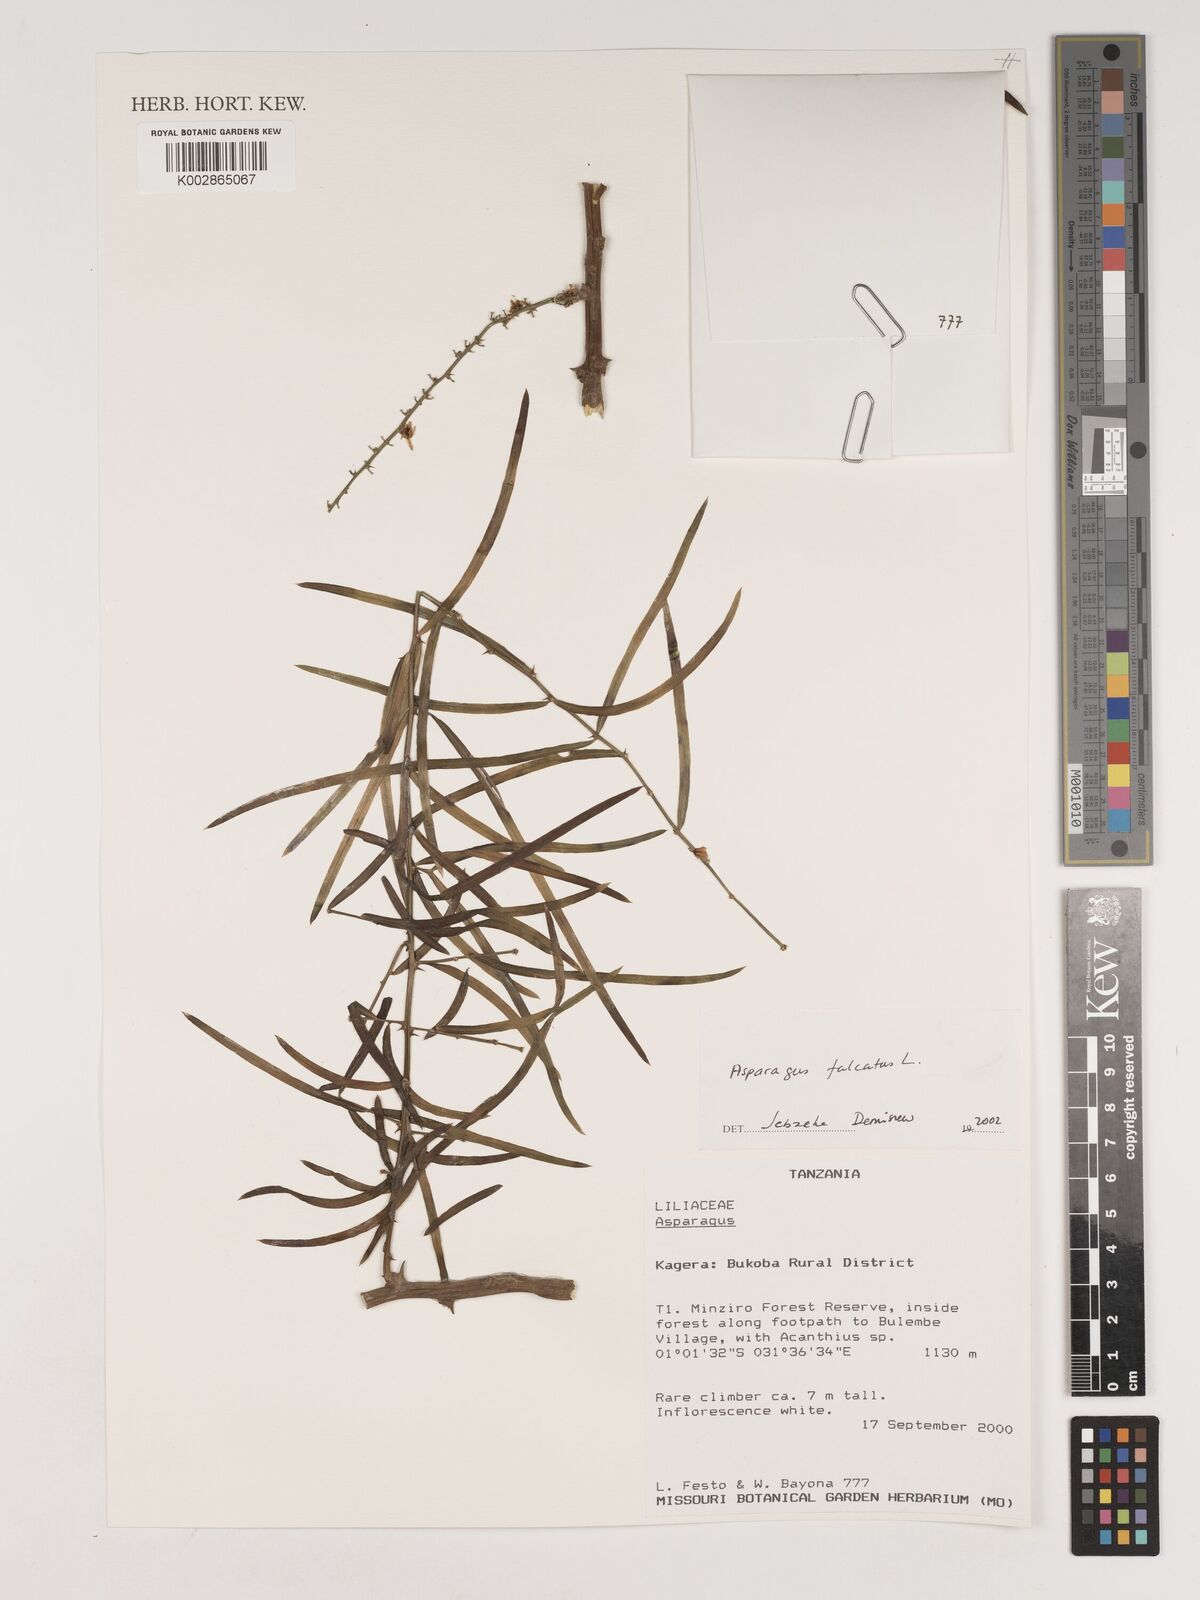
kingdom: Plantae
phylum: Tracheophyta
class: Liliopsida
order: Asparagales
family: Asparagaceae
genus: Asparagus
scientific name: Asparagus falcatus
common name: Asparagus
